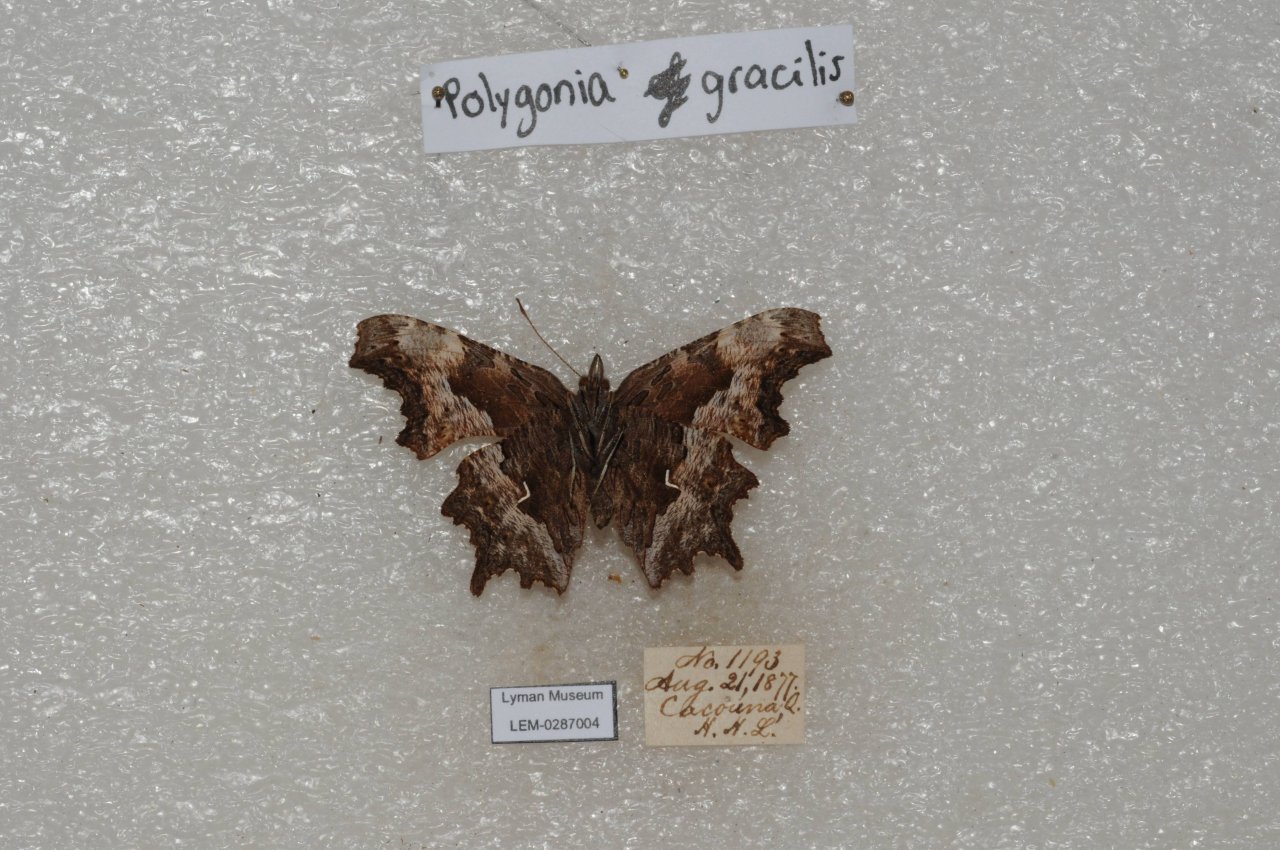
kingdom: Animalia
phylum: Arthropoda
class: Insecta
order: Lepidoptera
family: Nymphalidae
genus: Polygonia
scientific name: Polygonia gracilis
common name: Hoary Comma
